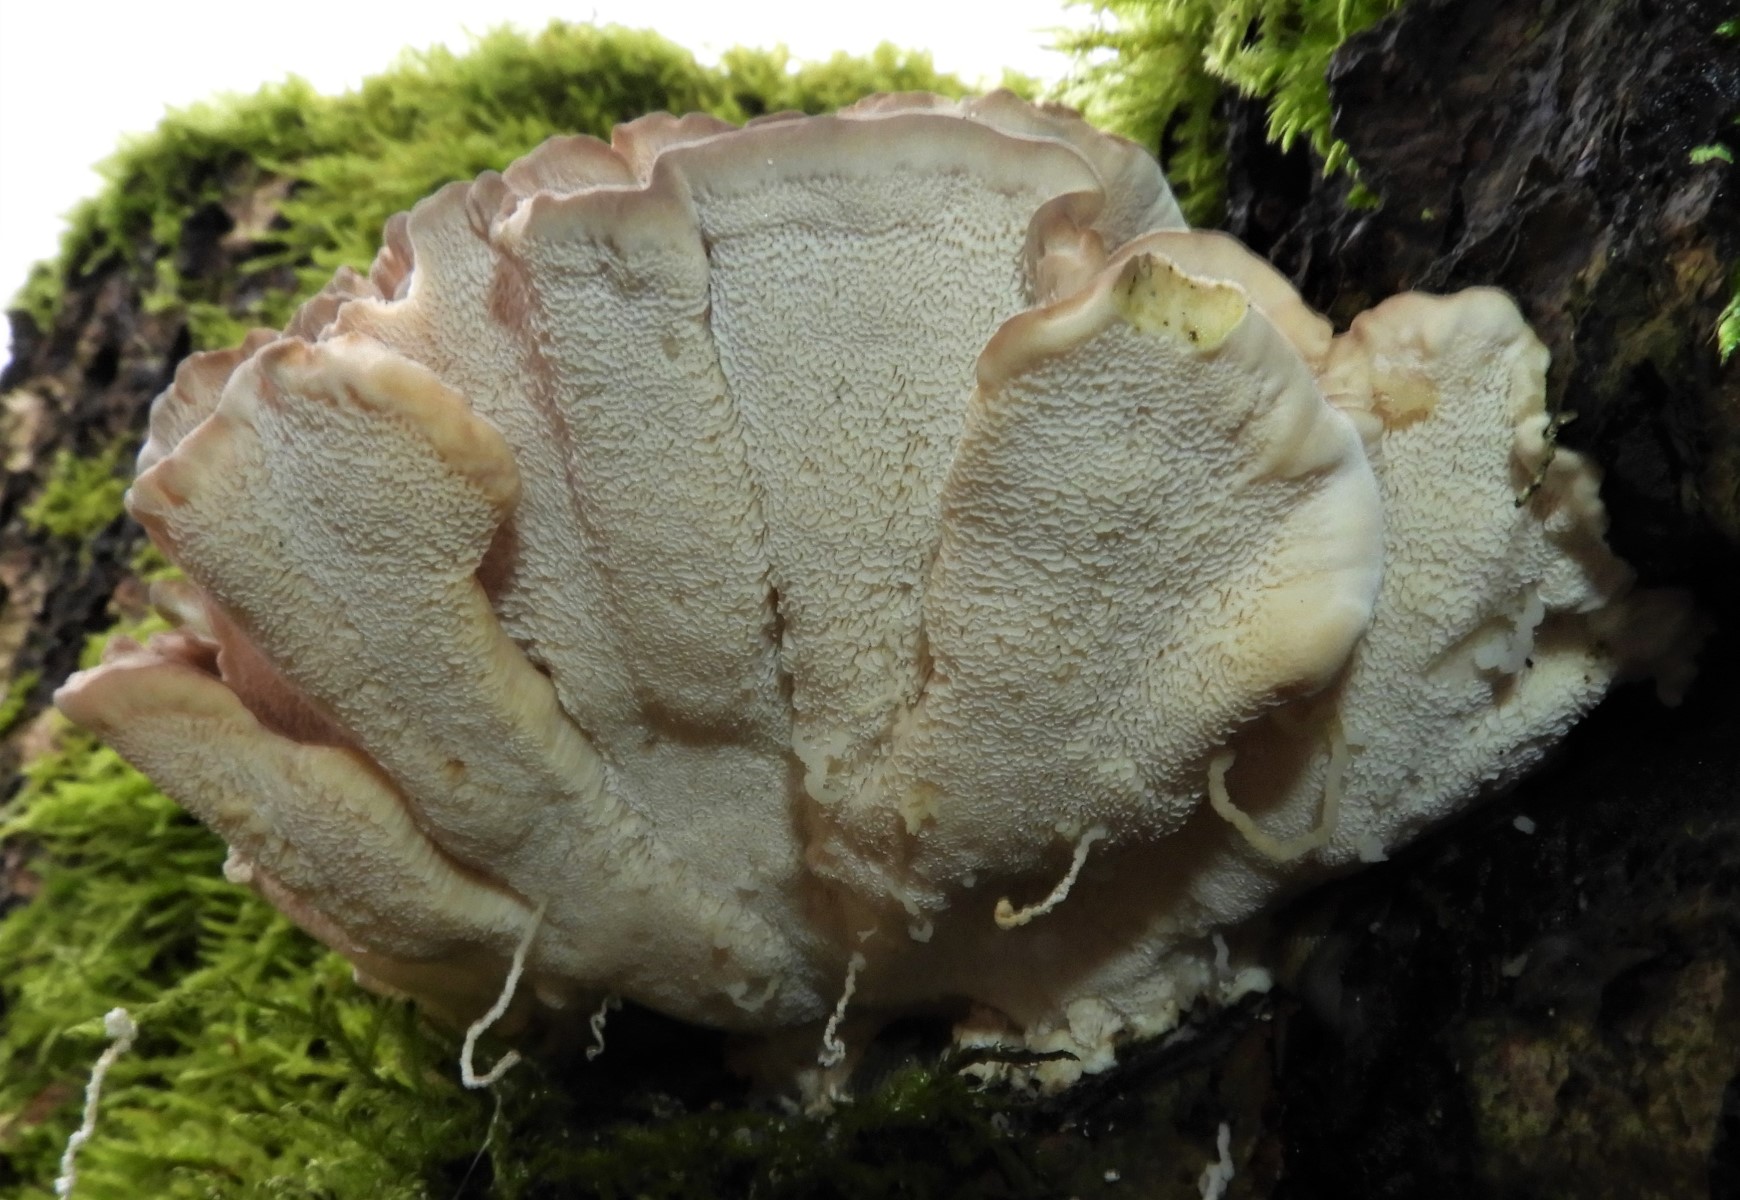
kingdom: Fungi
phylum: Basidiomycota
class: Agaricomycetes
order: Polyporales
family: Polyporaceae
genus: Trametes
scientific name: Trametes versicolor
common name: broget læderporesvamp
